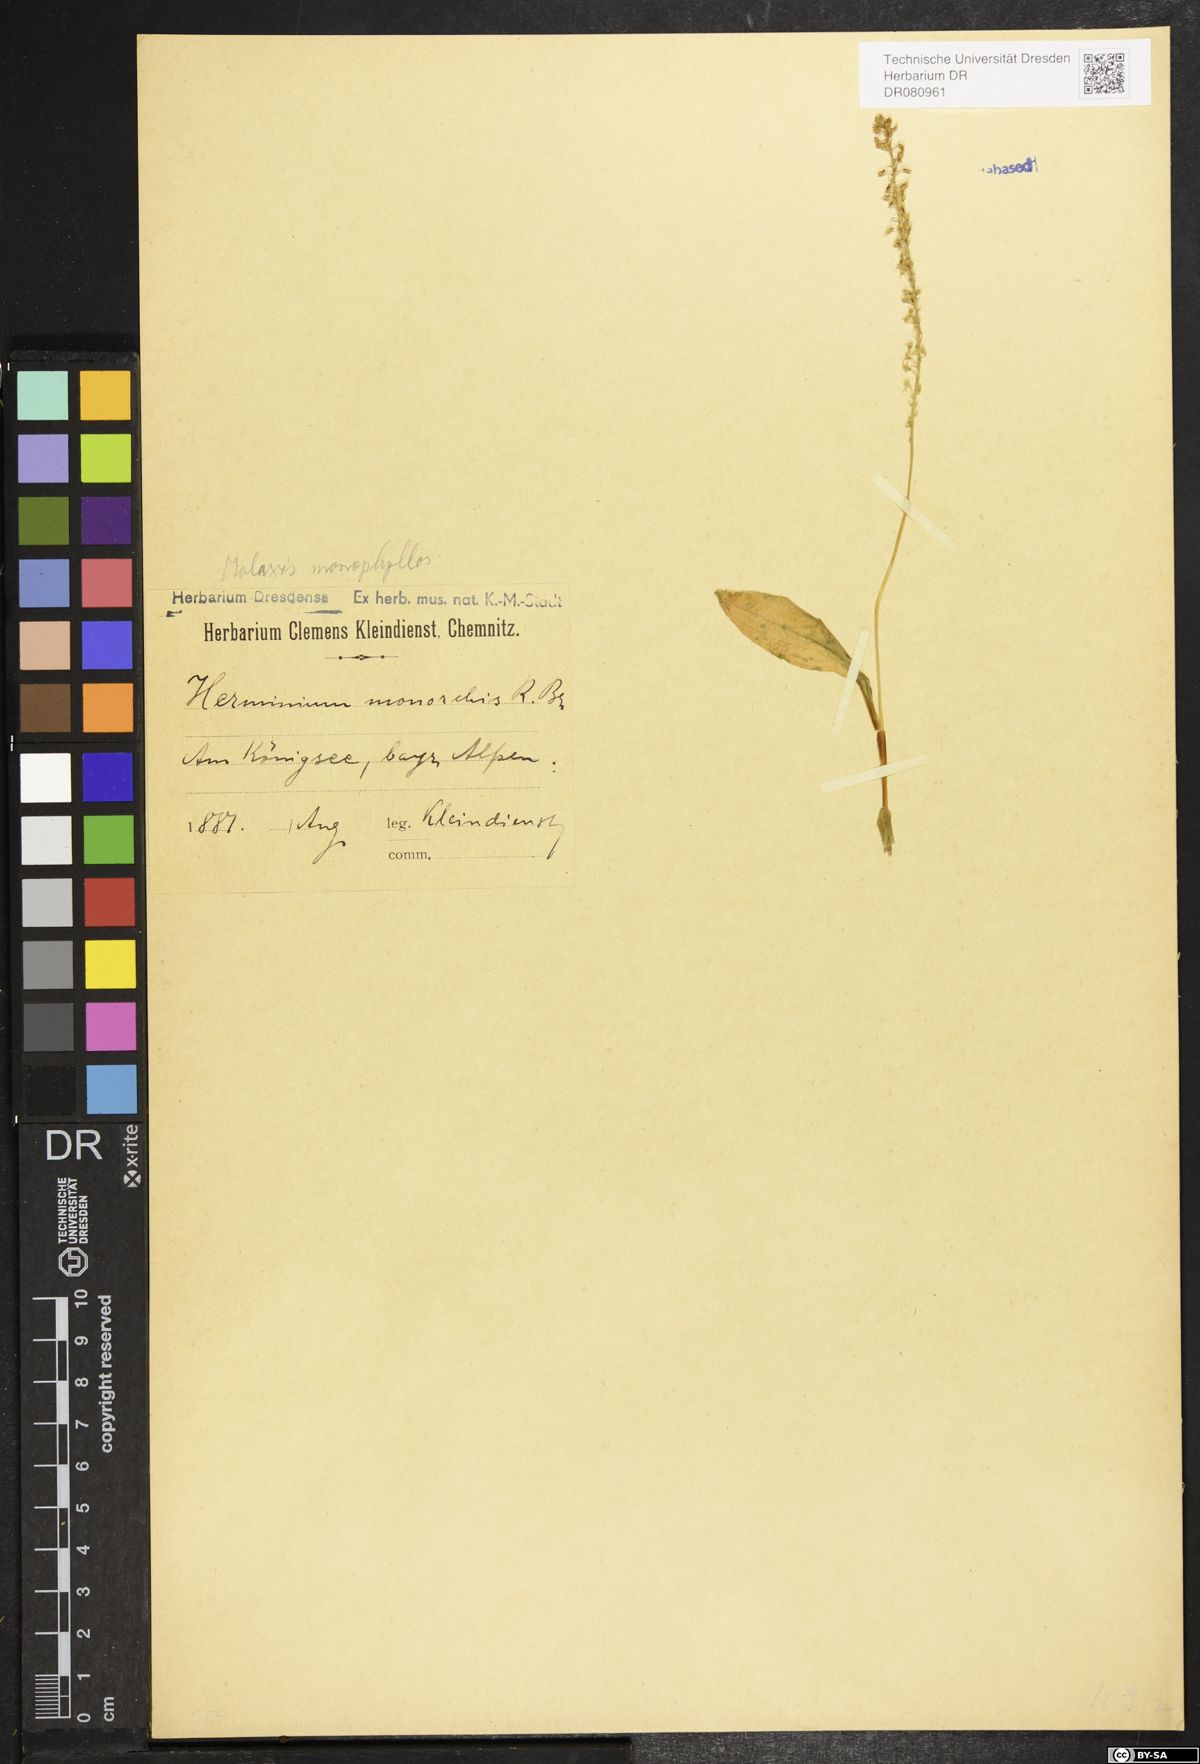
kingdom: Plantae
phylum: Tracheophyta
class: Liliopsida
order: Asparagales
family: Orchidaceae
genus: Malaxis
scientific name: Malaxis monophyllos
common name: White adder's-mouth
